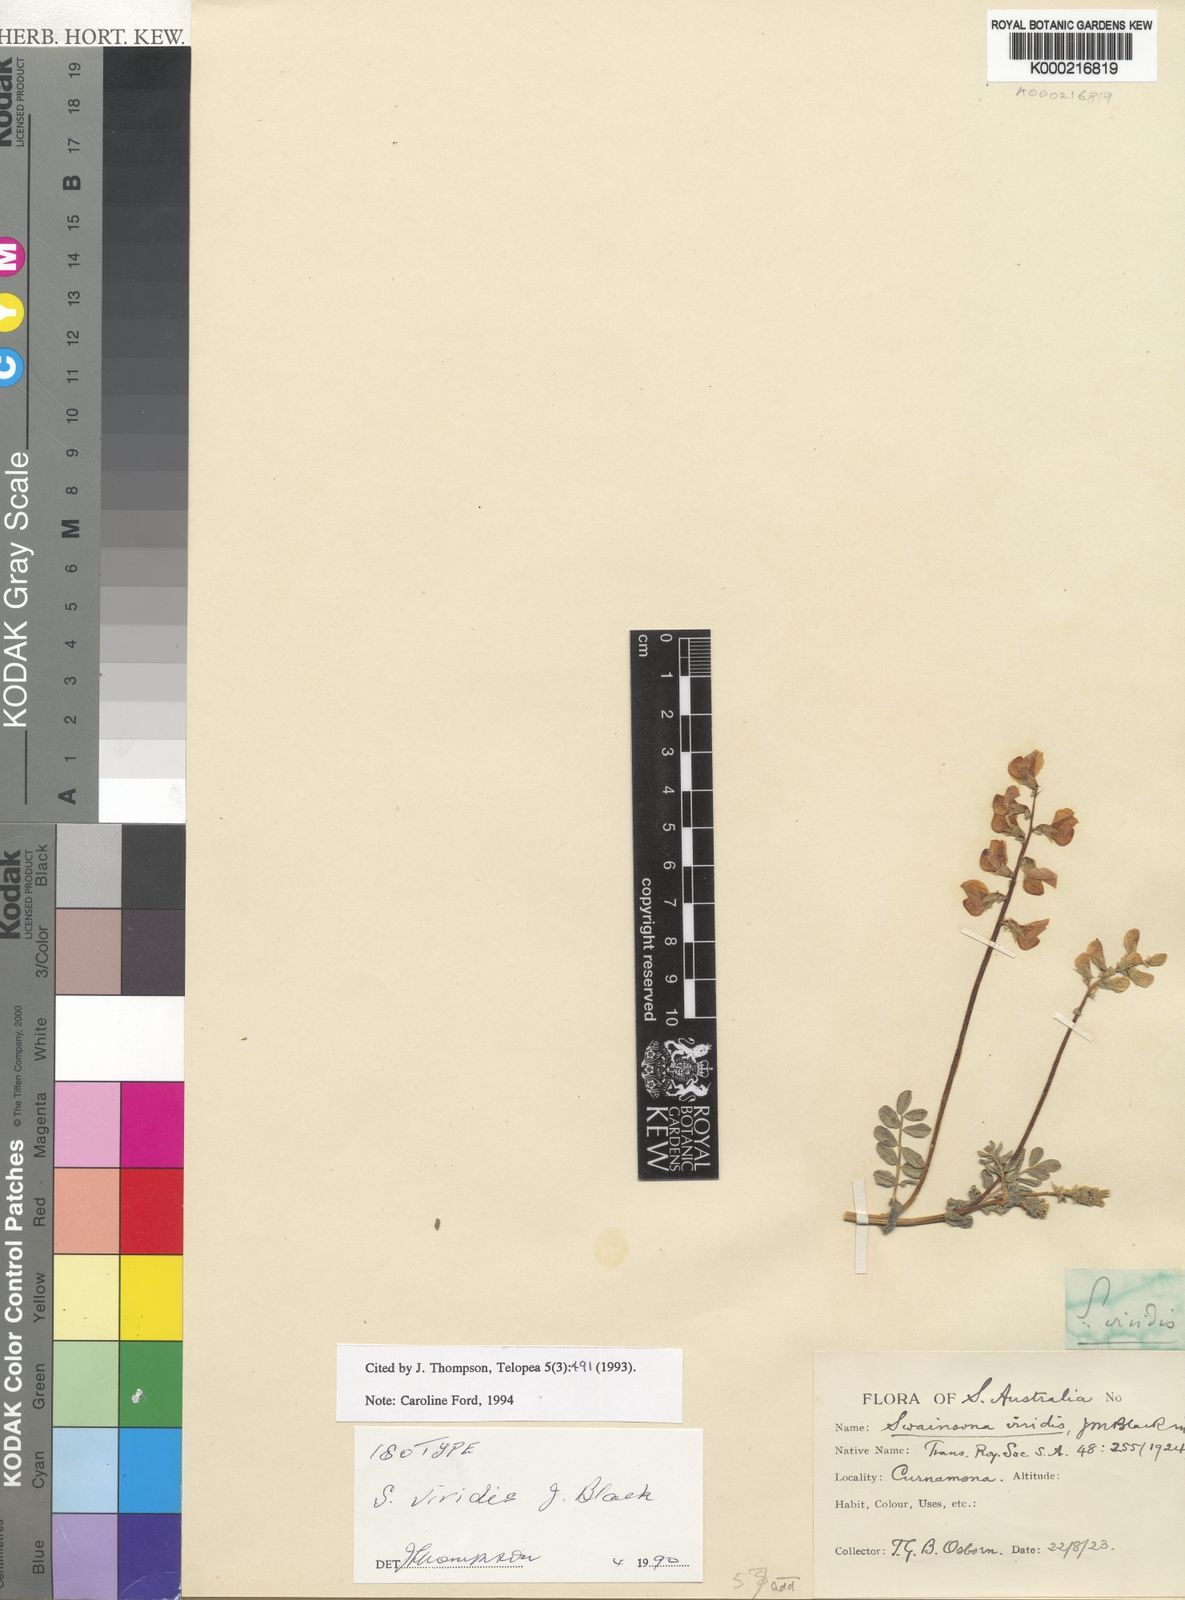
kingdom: Plantae
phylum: Tracheophyta
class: Magnoliopsida
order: Fabales
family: Fabaceae
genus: Swainsona
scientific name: Swainsona viridis
